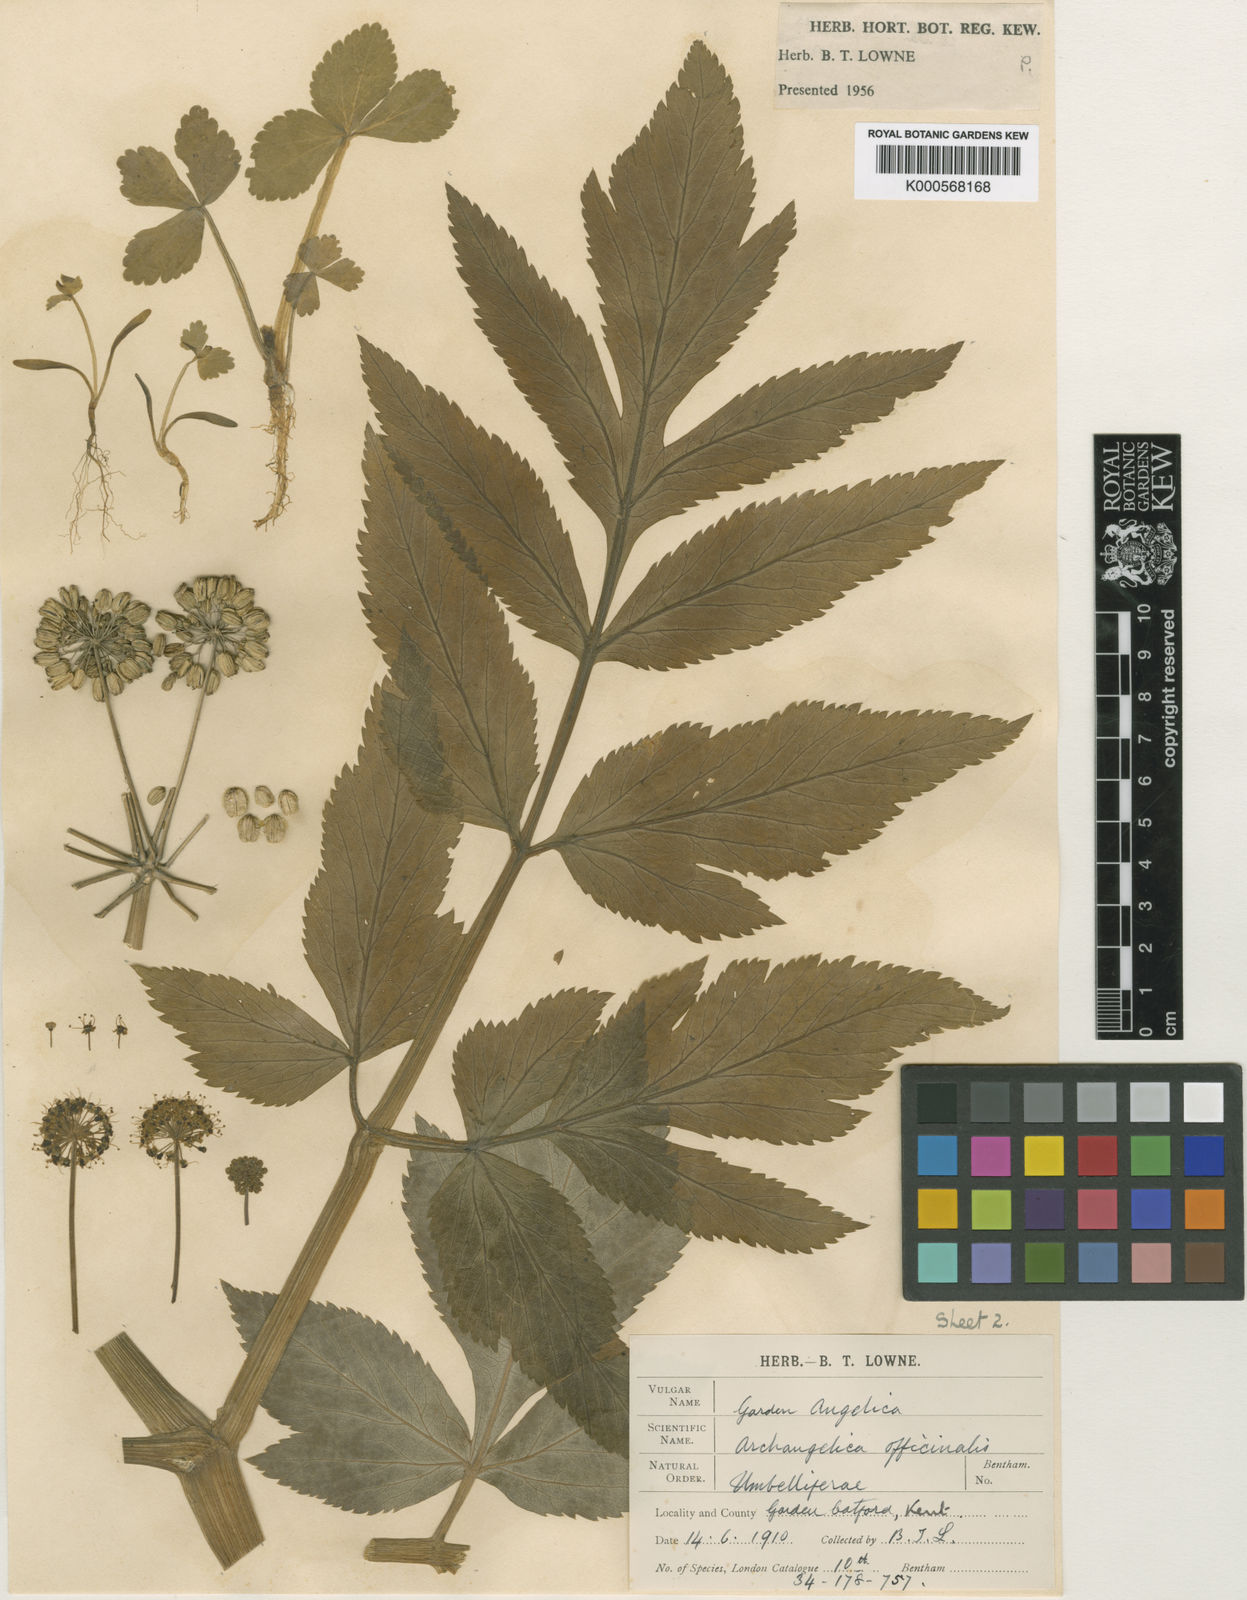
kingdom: Plantae
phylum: Tracheophyta
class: Magnoliopsida
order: Apiales
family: Apiaceae
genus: Angelica
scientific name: Angelica archangelica
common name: Garden angelica
